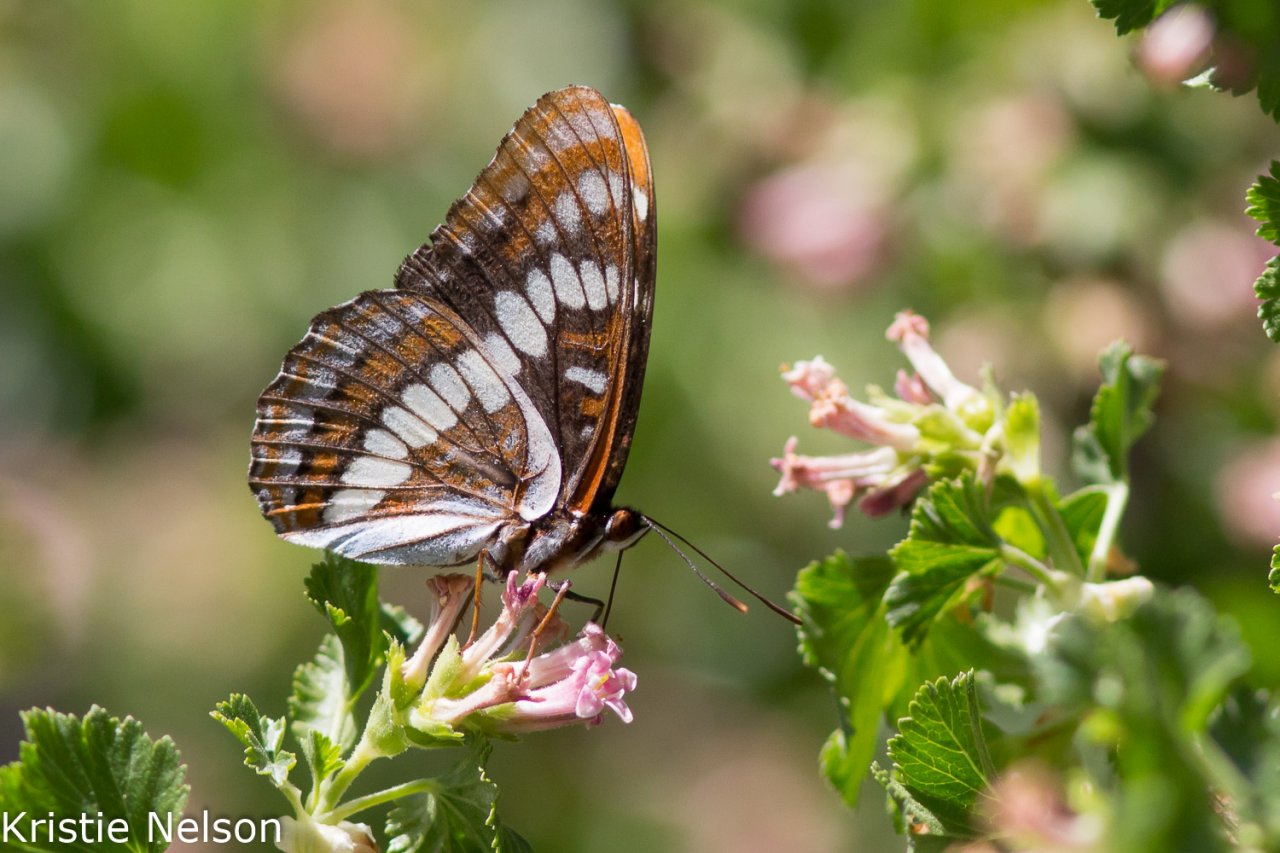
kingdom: Animalia
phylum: Arthropoda
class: Insecta
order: Lepidoptera
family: Nymphalidae
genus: Limenitis
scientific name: Limenitis lorquini
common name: Lorquin's Admiral
